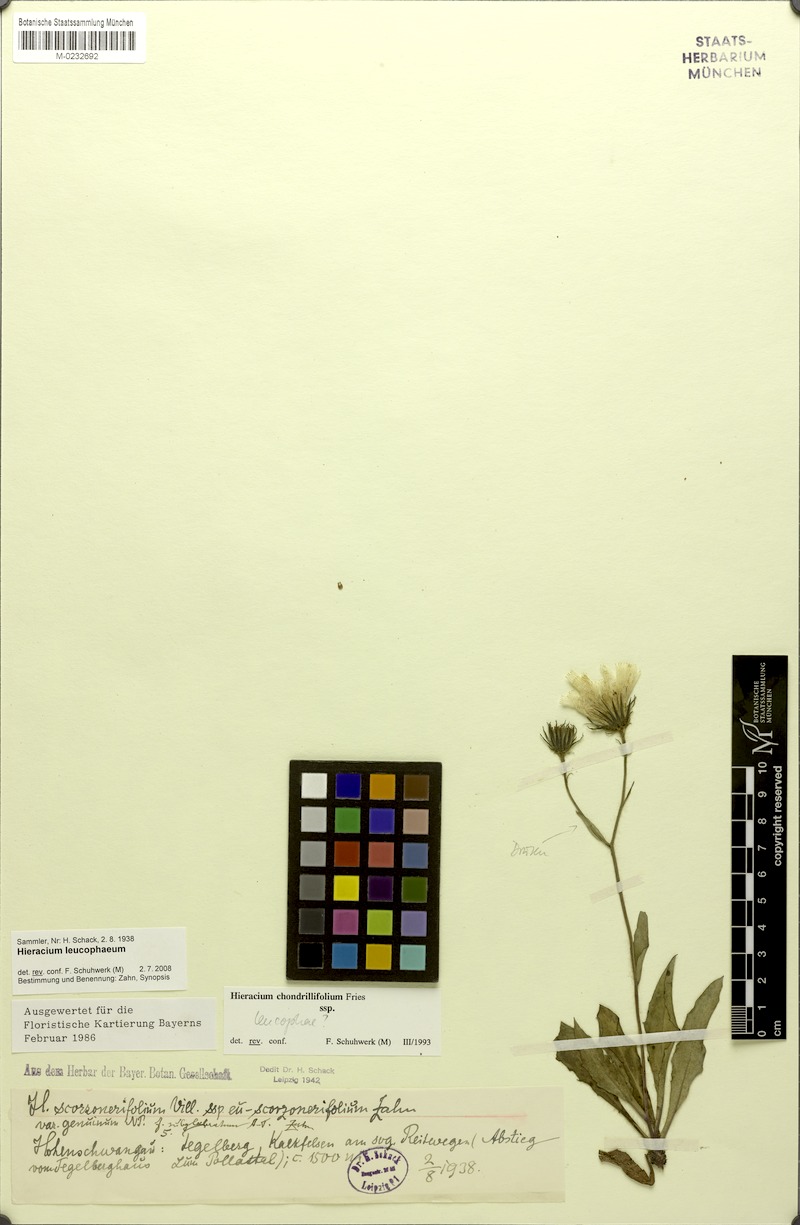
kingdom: Plantae
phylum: Tracheophyta
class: Magnoliopsida
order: Asterales
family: Asteraceae
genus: Hieracium
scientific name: Hieracium leucophaeum
